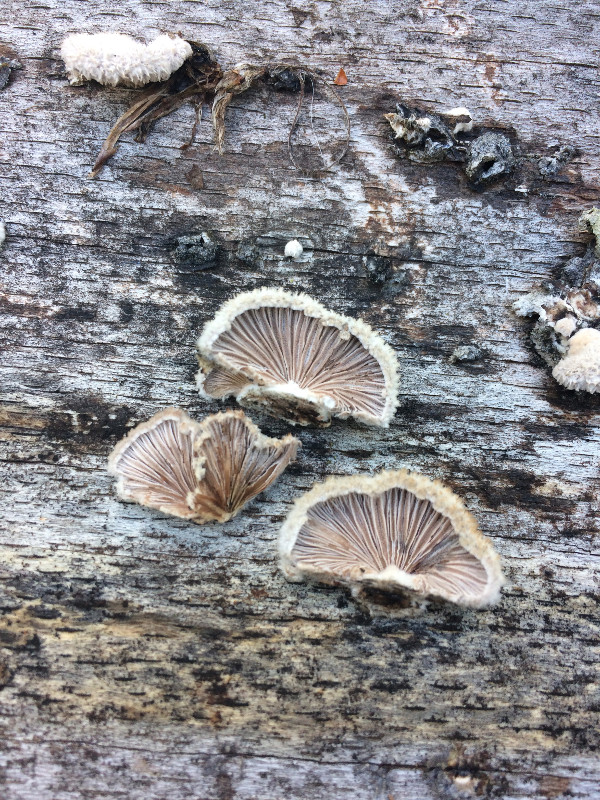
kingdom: Fungi
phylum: Basidiomycota
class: Agaricomycetes
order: Agaricales
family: Schizophyllaceae
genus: Schizophyllum
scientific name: Schizophyllum commune
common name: kløvblad
